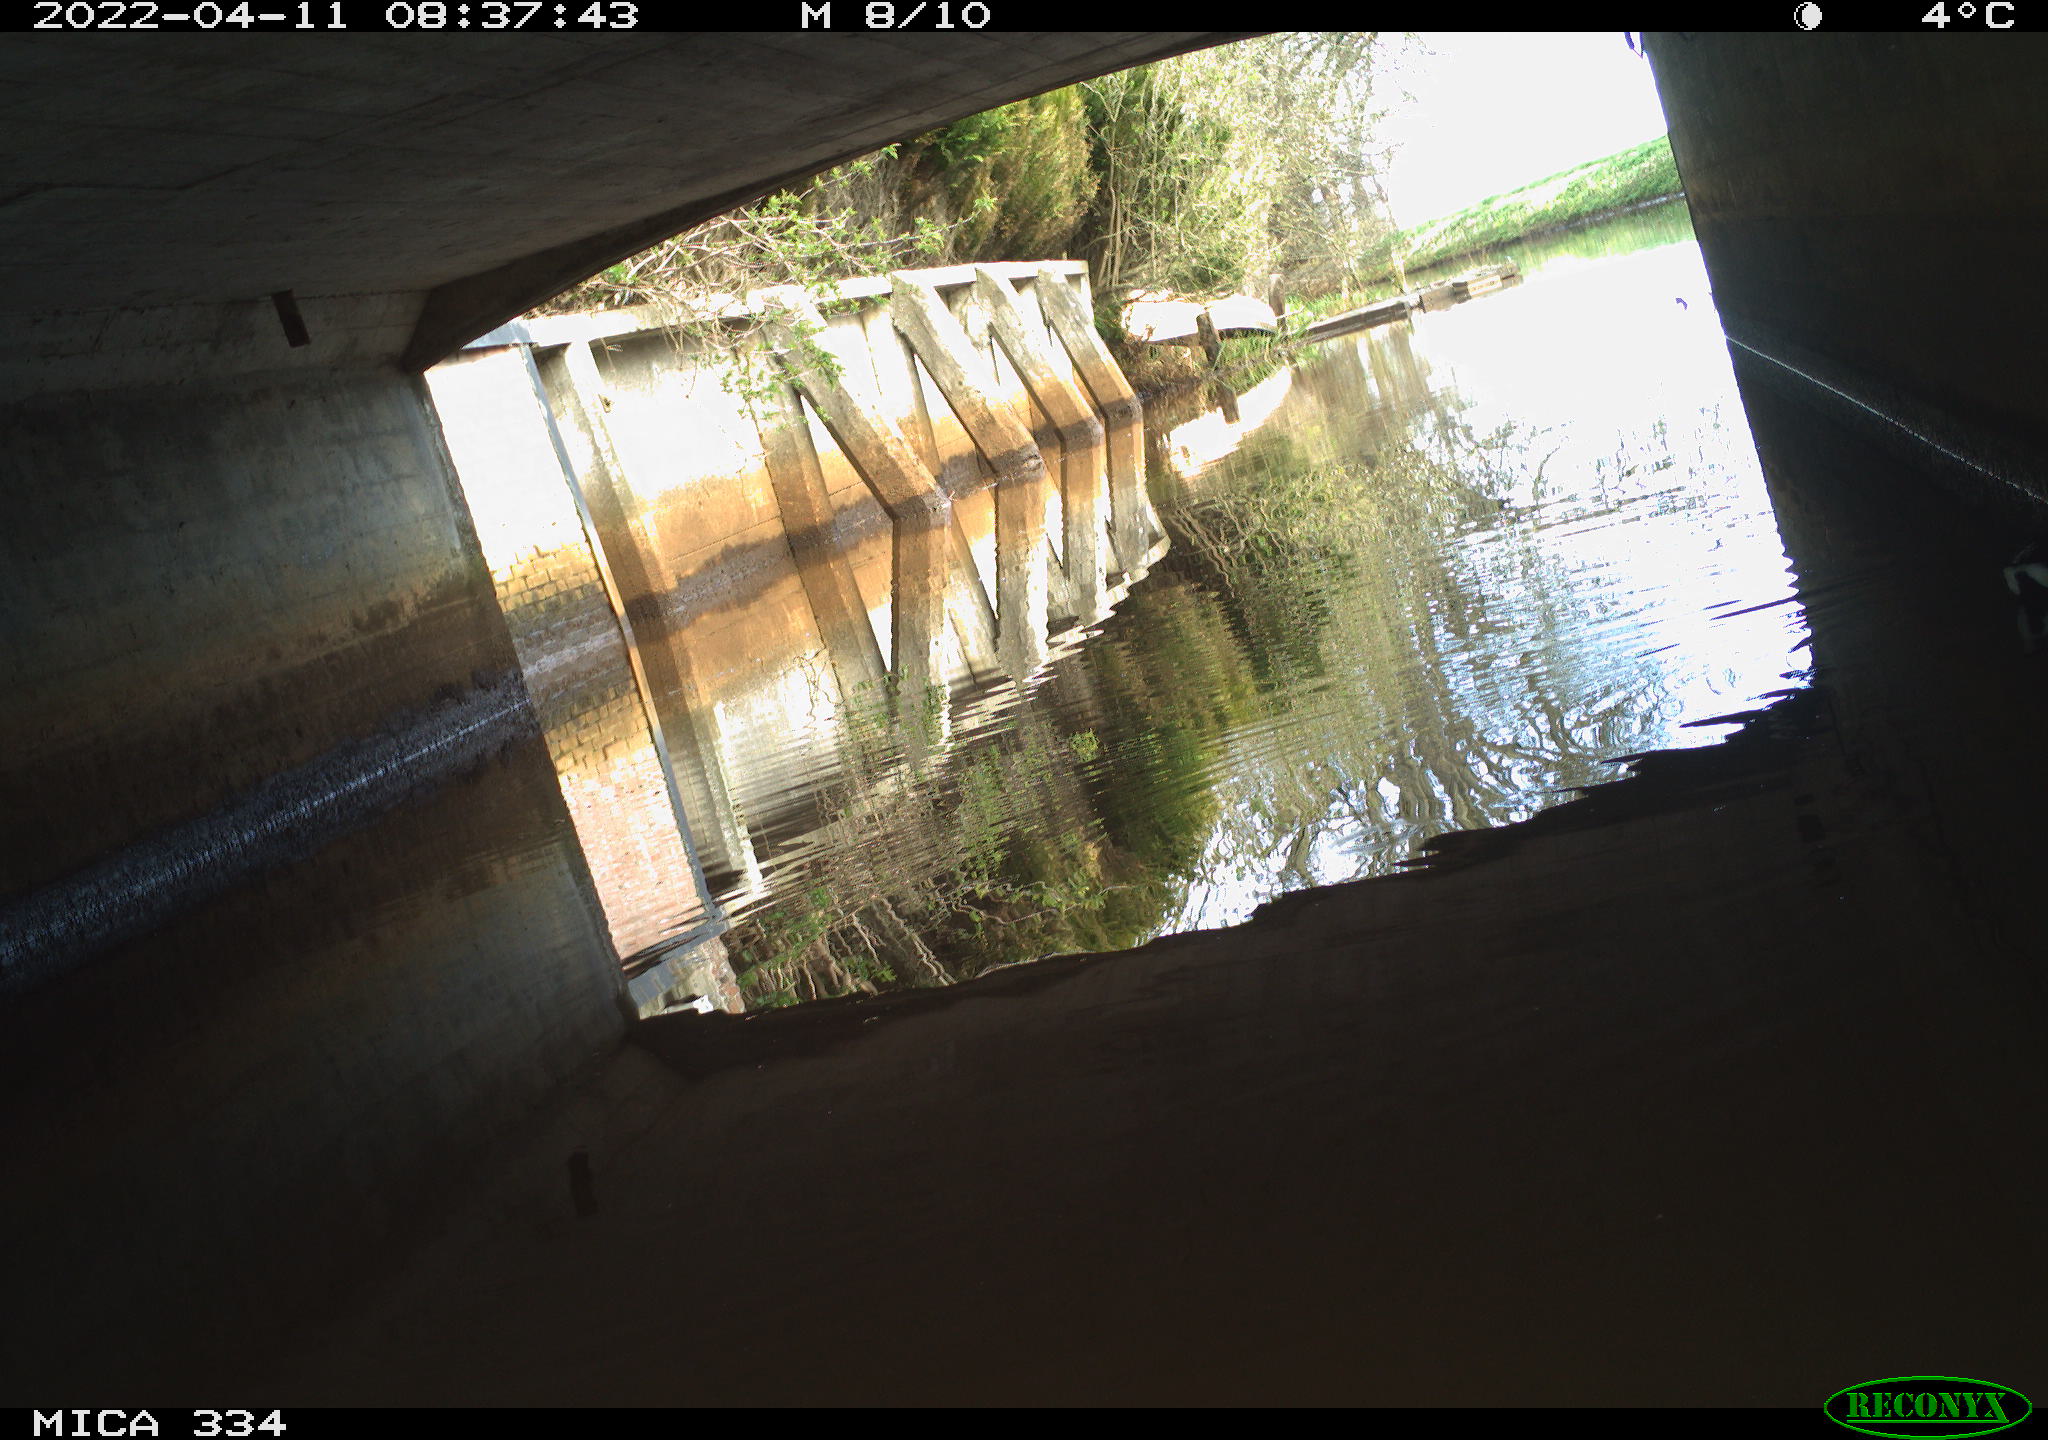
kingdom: Animalia
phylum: Chordata
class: Aves
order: Gruiformes
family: Rallidae
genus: Gallinula
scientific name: Gallinula chloropus
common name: Common moorhen
